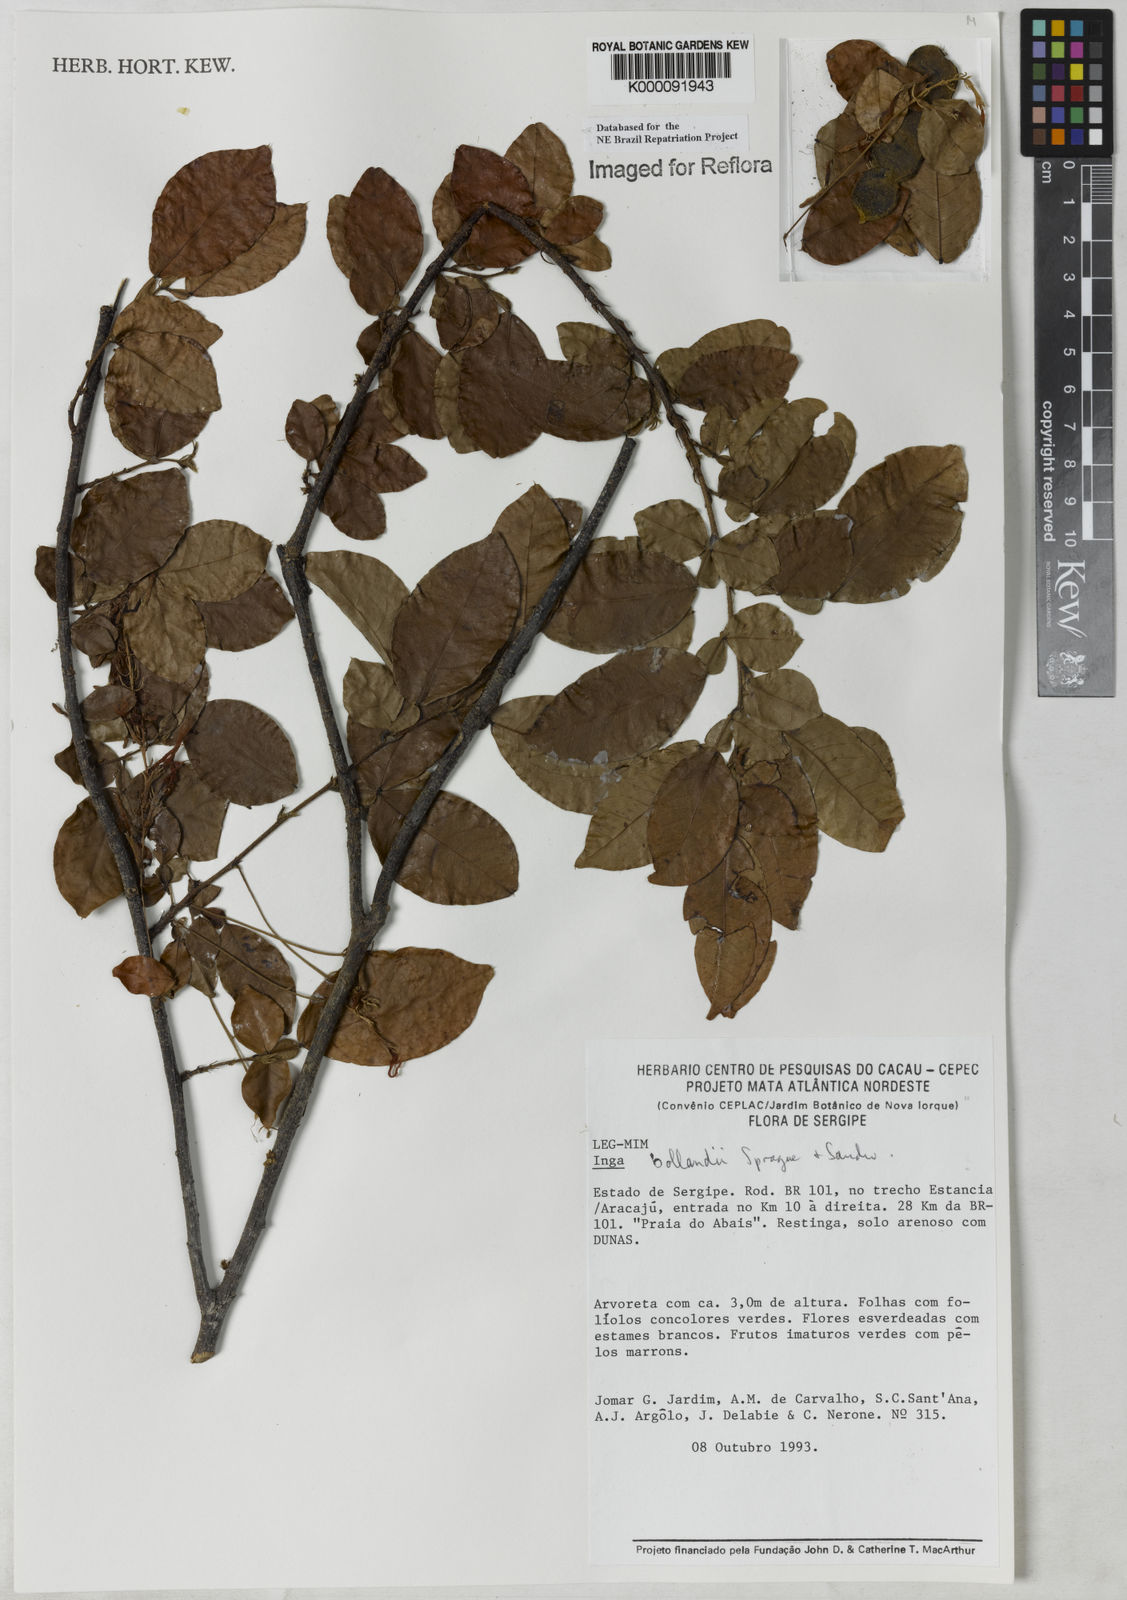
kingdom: Plantae
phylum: Tracheophyta
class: Magnoliopsida
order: Fabales
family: Fabaceae
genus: Inga
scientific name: Inga bollandii
